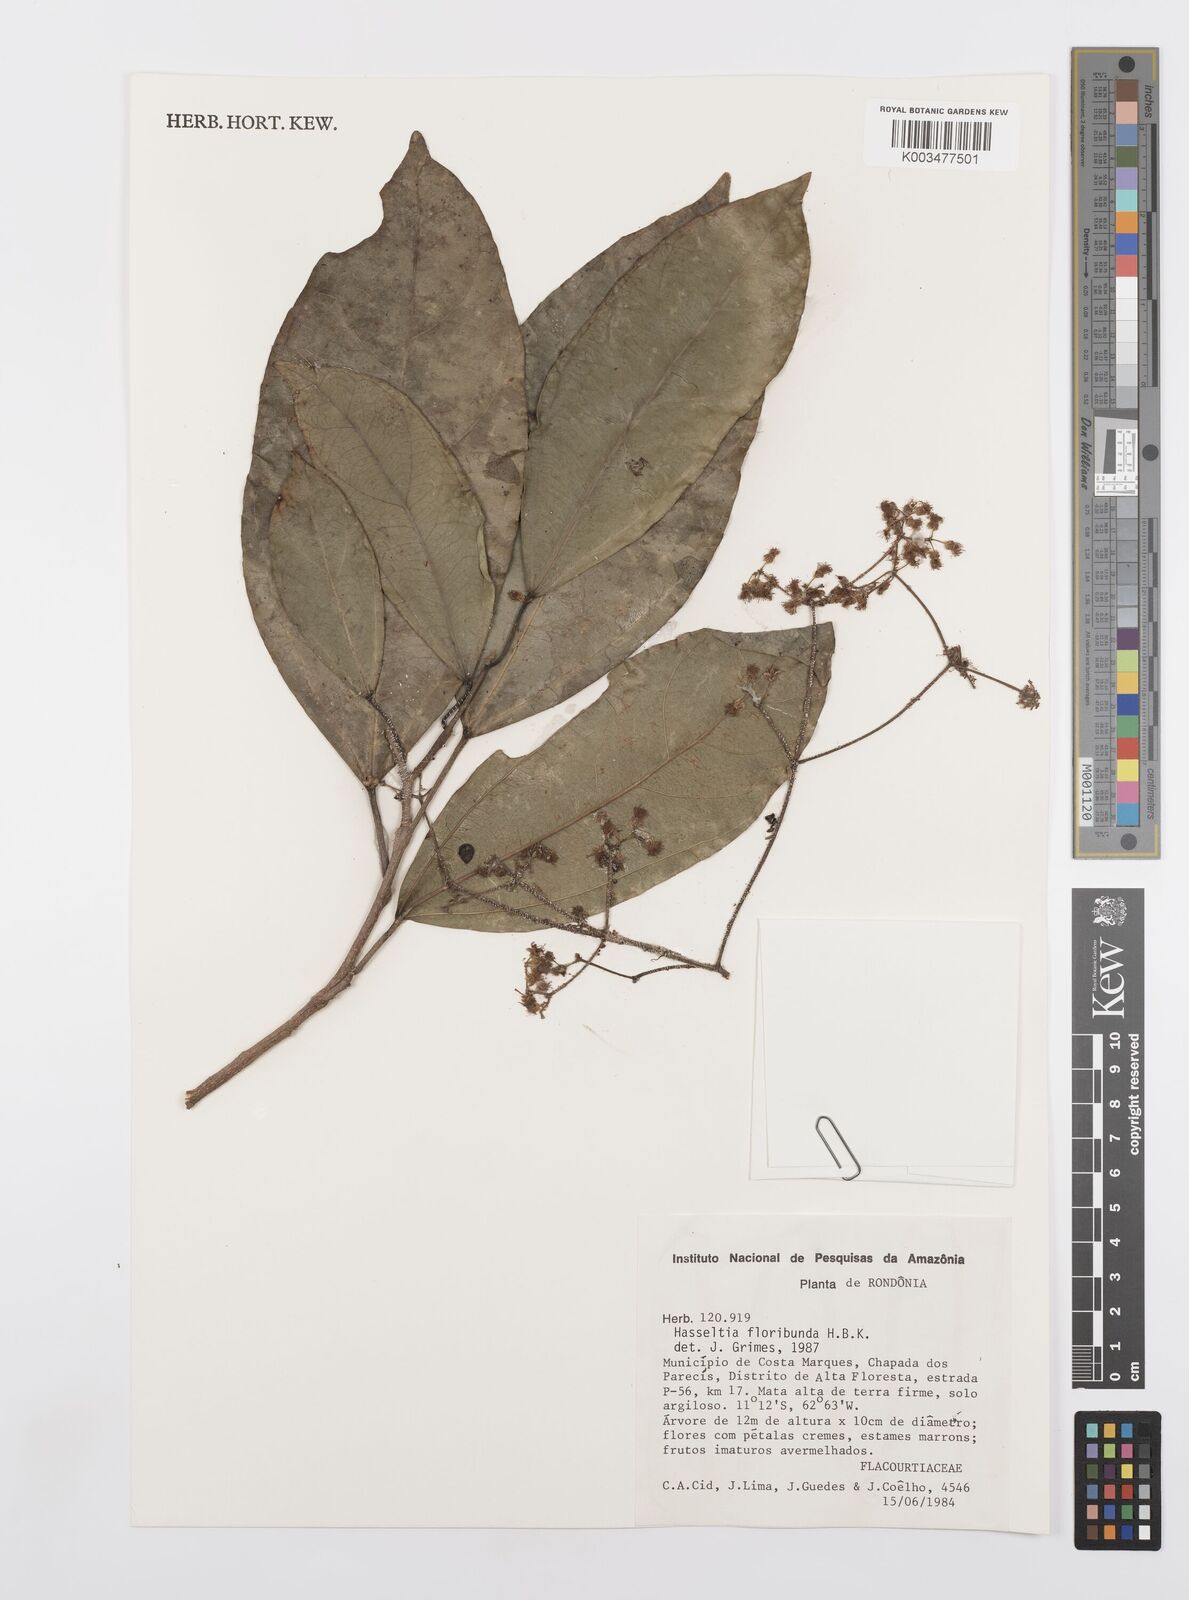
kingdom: Plantae
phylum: Tracheophyta
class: Magnoliopsida
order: Malpighiales
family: Salicaceae
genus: Hasseltia
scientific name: Hasseltia floribunda
